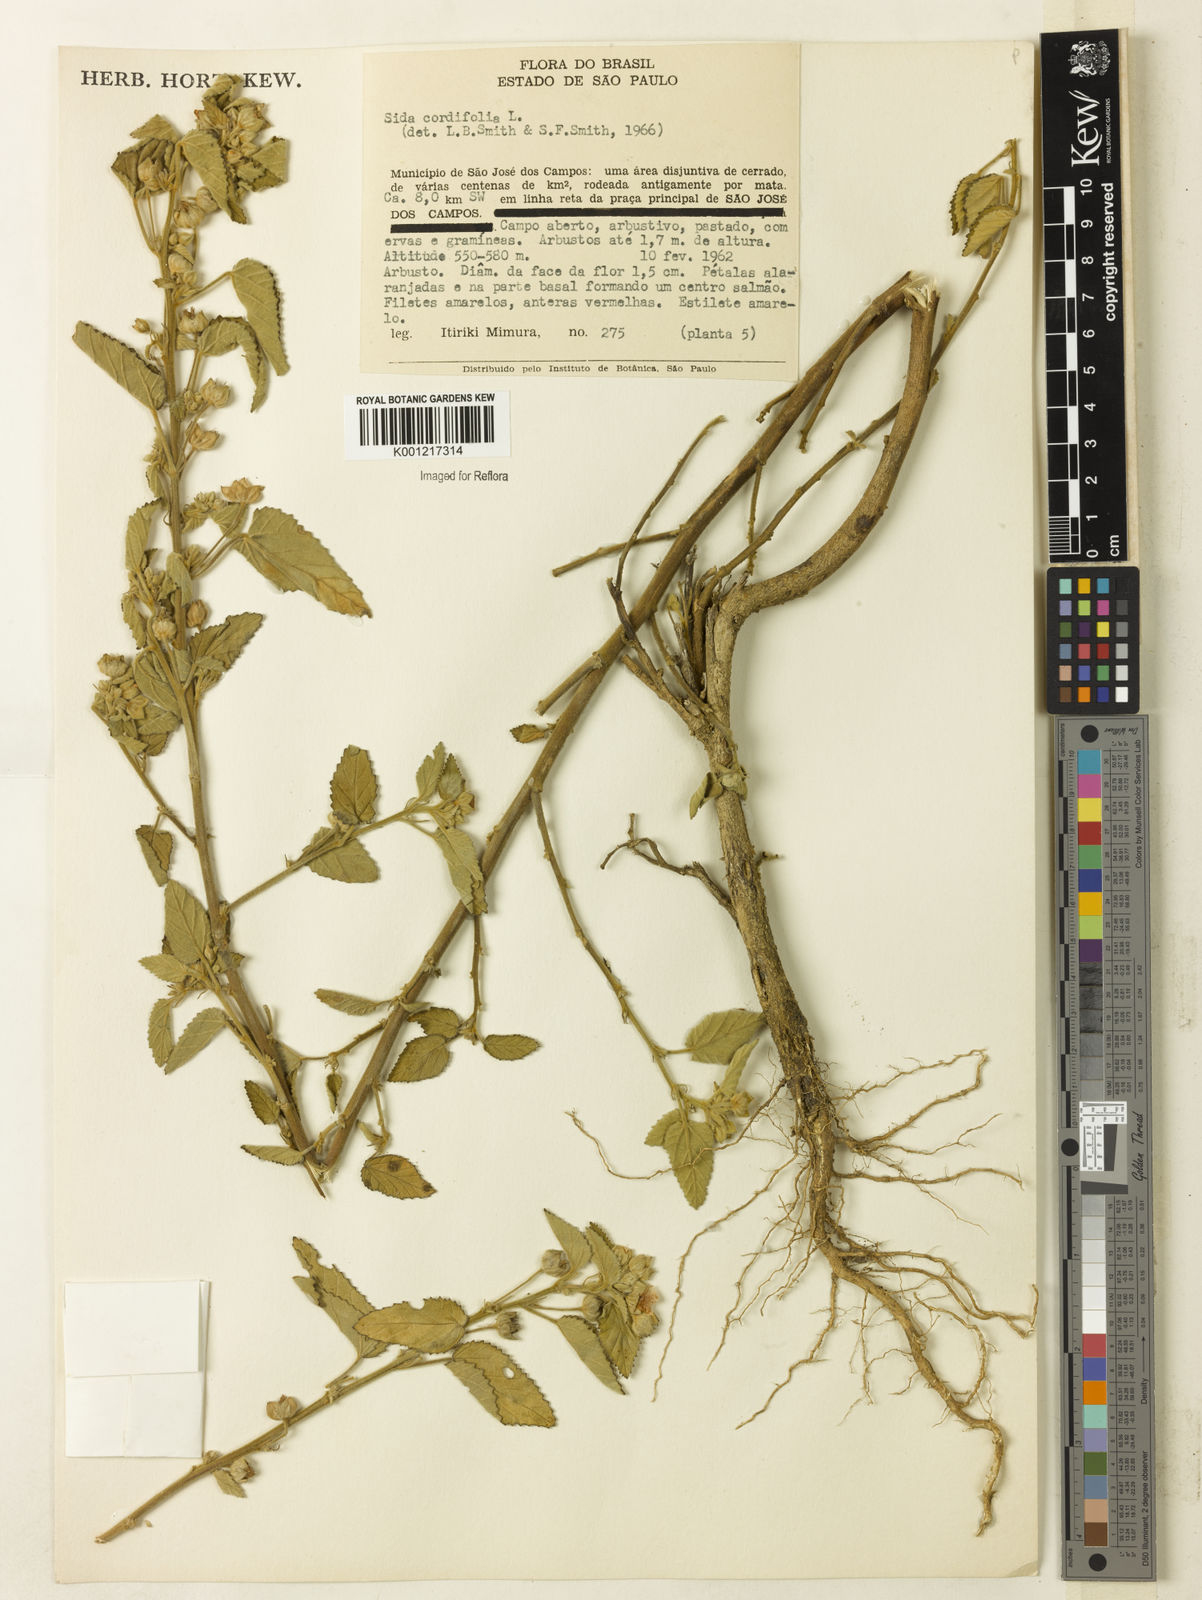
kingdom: Plantae
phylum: Tracheophyta
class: Magnoliopsida
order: Malvales
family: Malvaceae
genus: Sida
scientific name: Sida cordifolia
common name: Ilima
